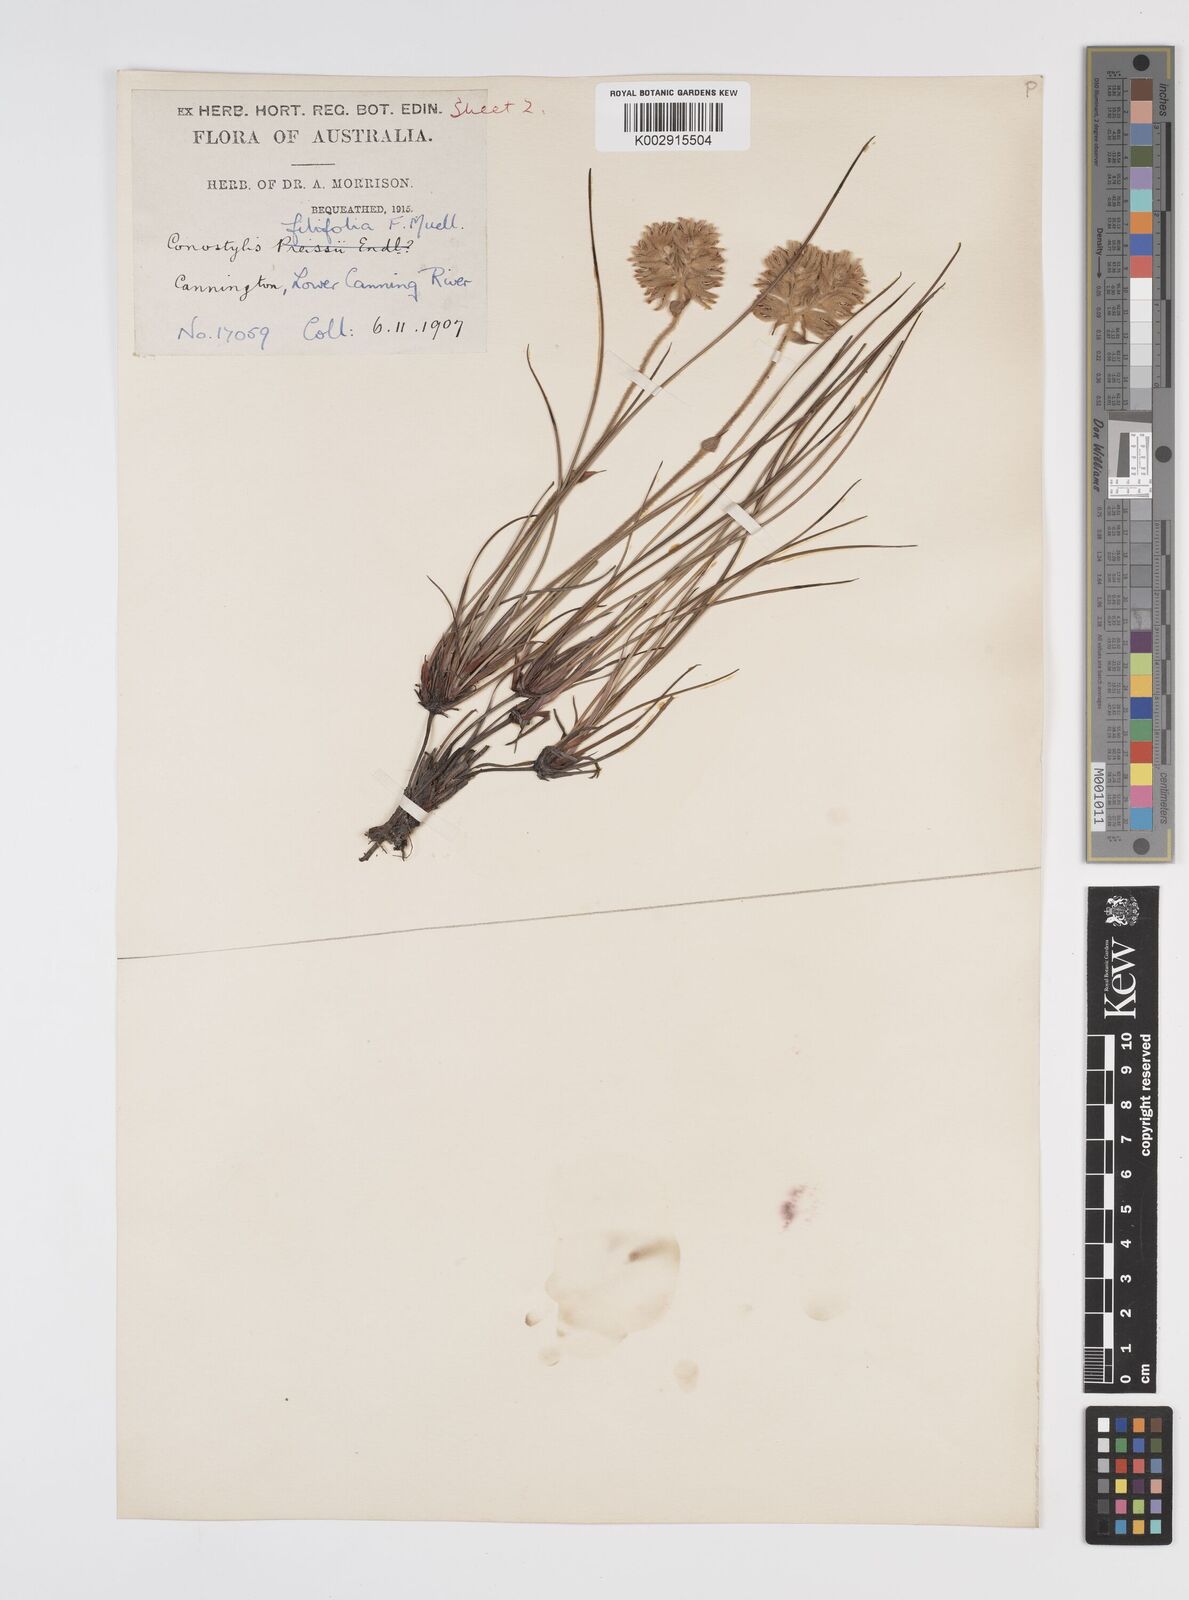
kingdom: Plantae
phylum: Tracheophyta
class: Liliopsida
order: Commelinales
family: Haemodoraceae
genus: Conostylis
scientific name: Conostylis festucacea
